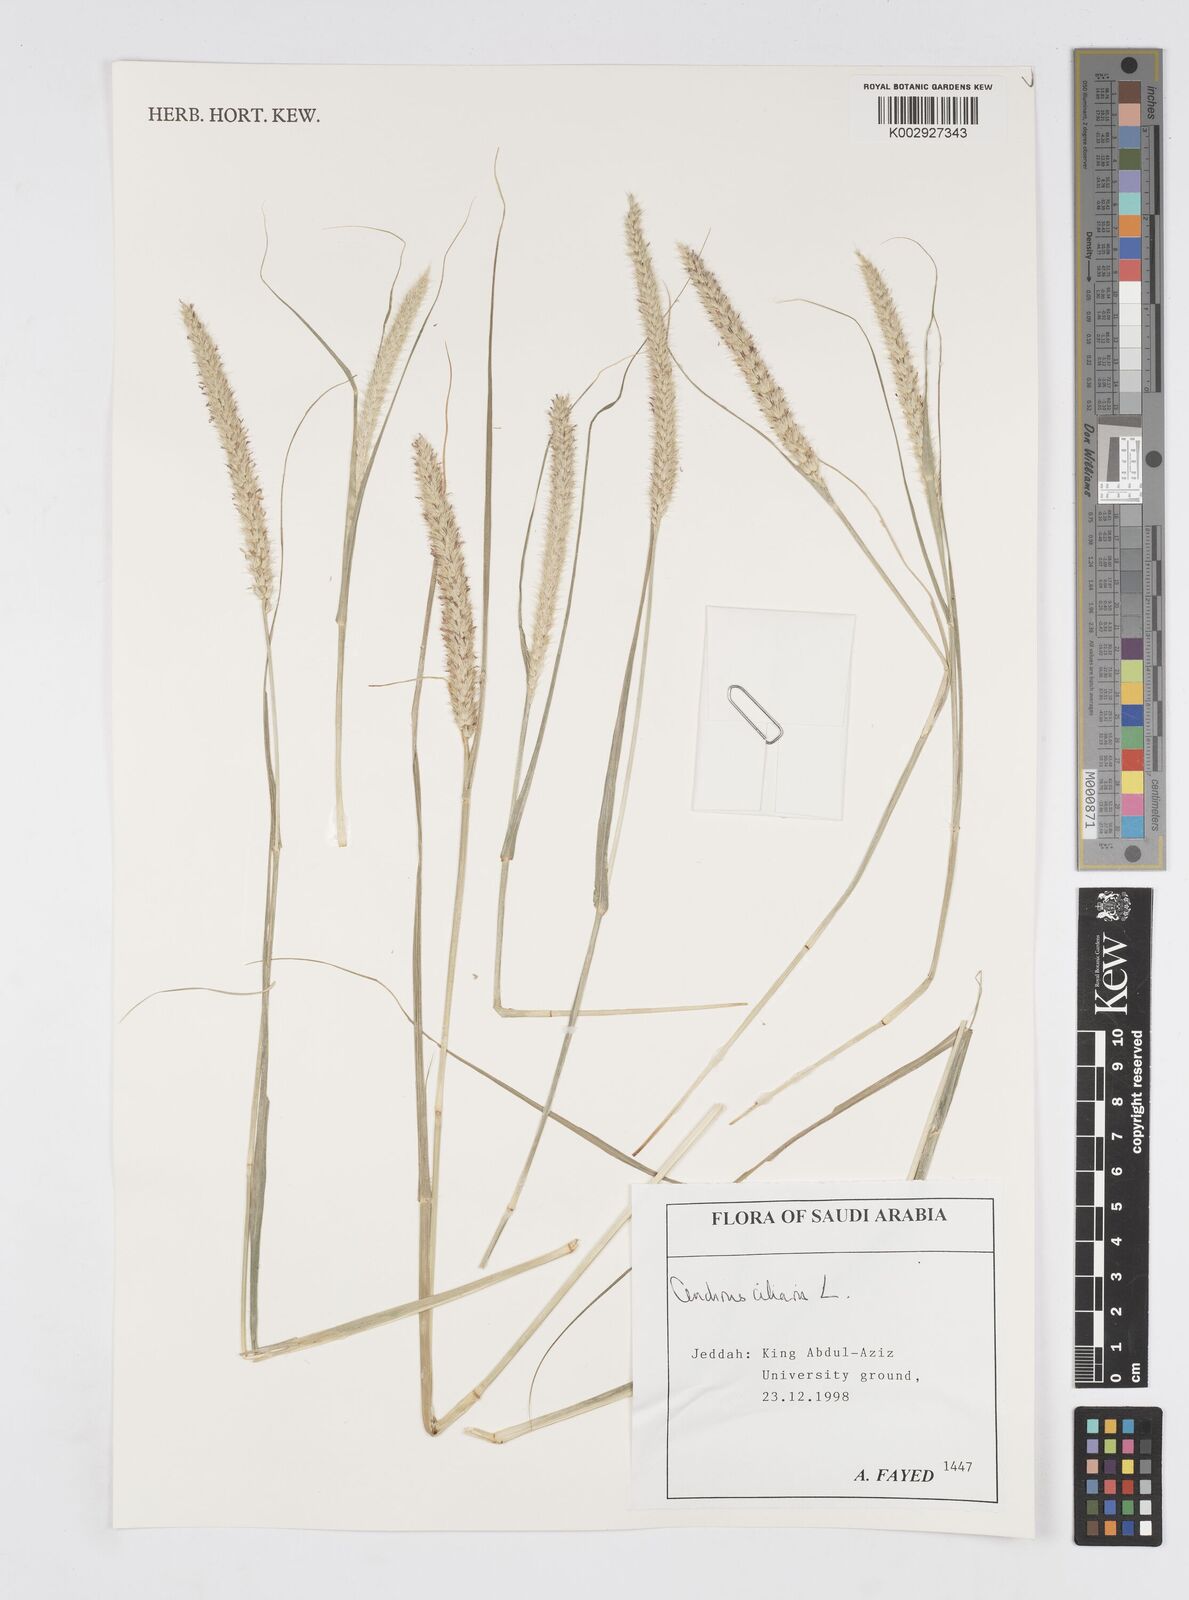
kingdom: Plantae
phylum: Tracheophyta
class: Liliopsida
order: Poales
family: Poaceae
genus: Cenchrus
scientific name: Cenchrus ciliaris
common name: Buffelgrass
